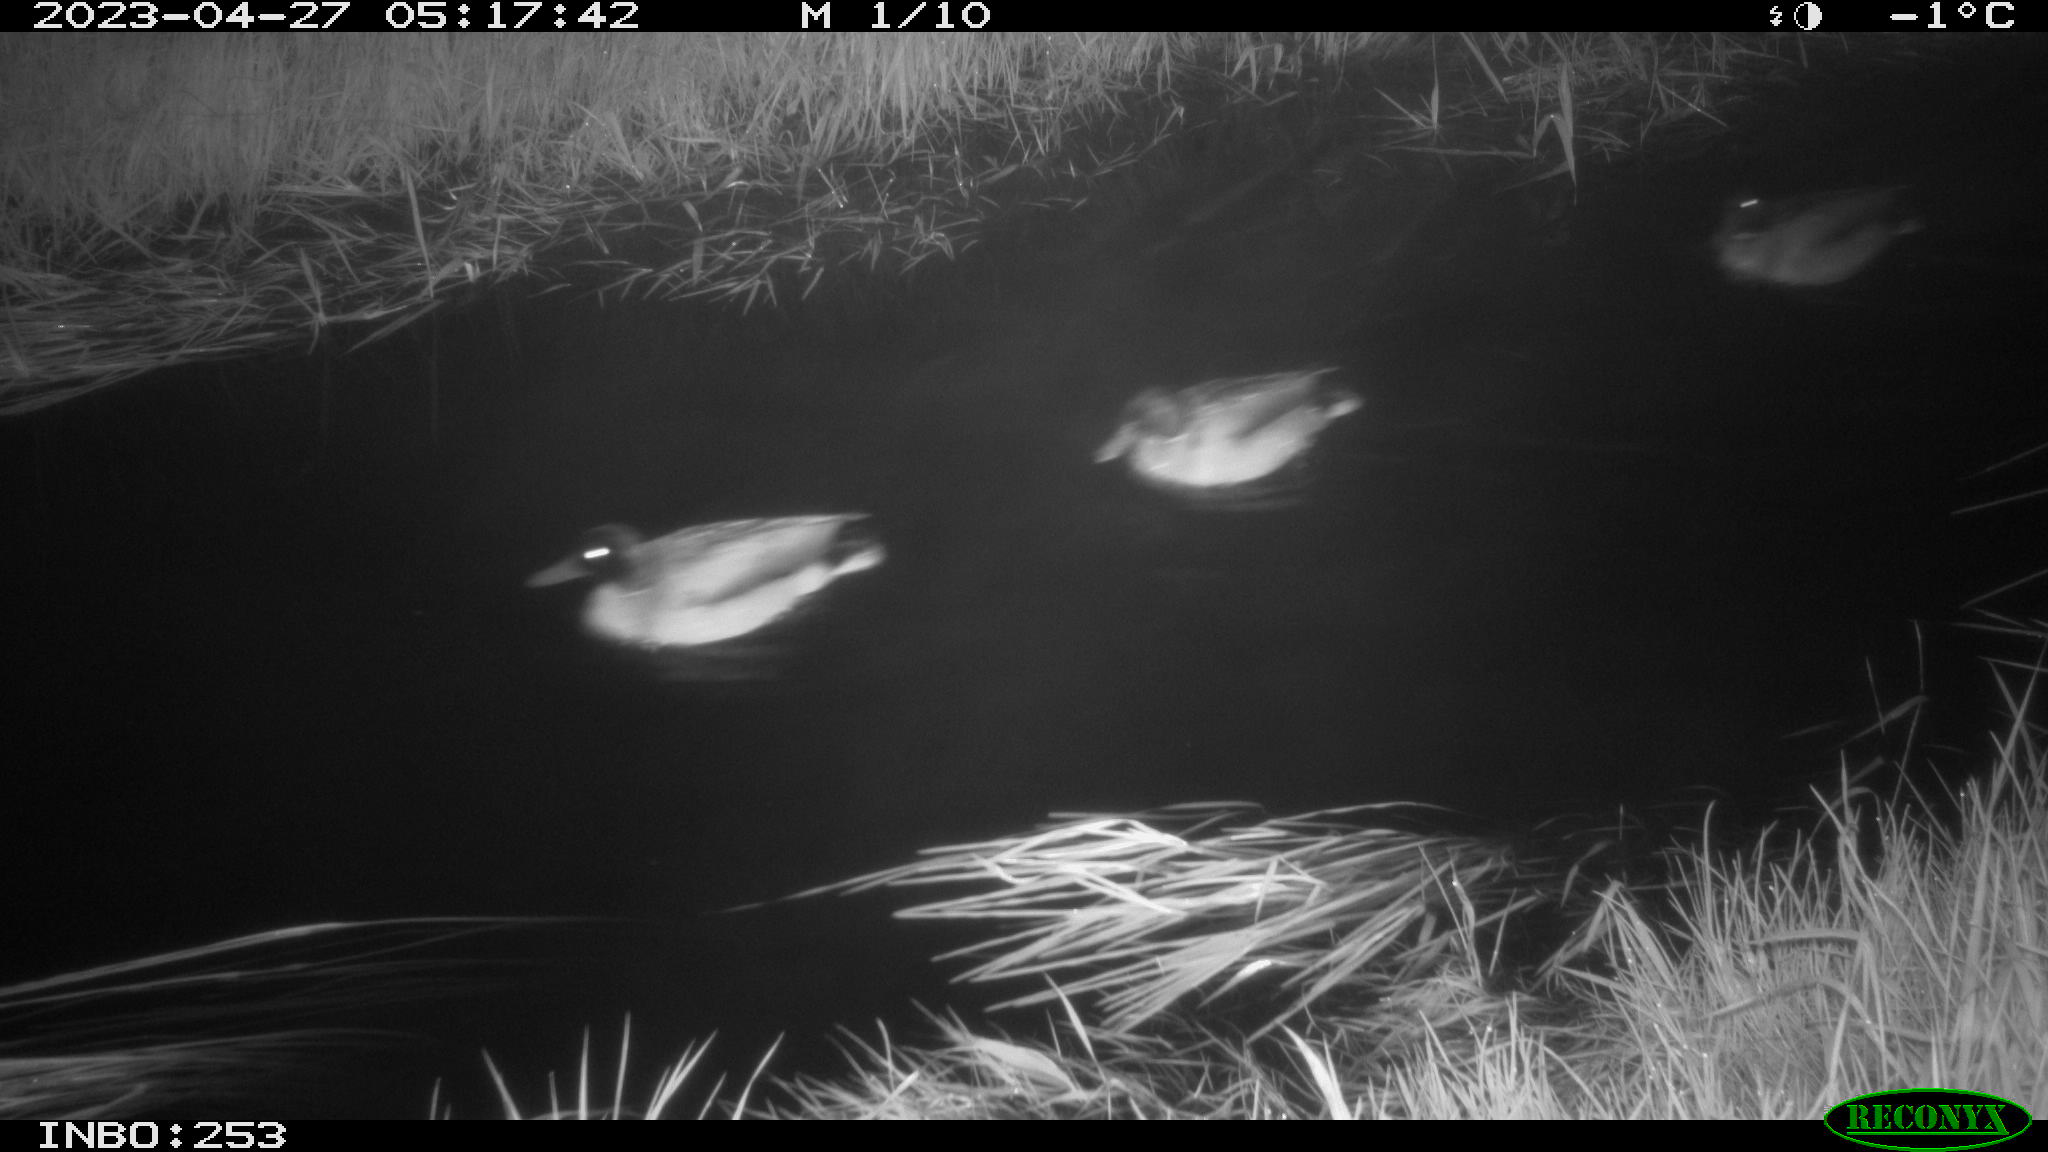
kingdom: Animalia
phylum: Chordata
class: Aves
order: Anseriformes
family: Anatidae
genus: Anas
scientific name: Anas
